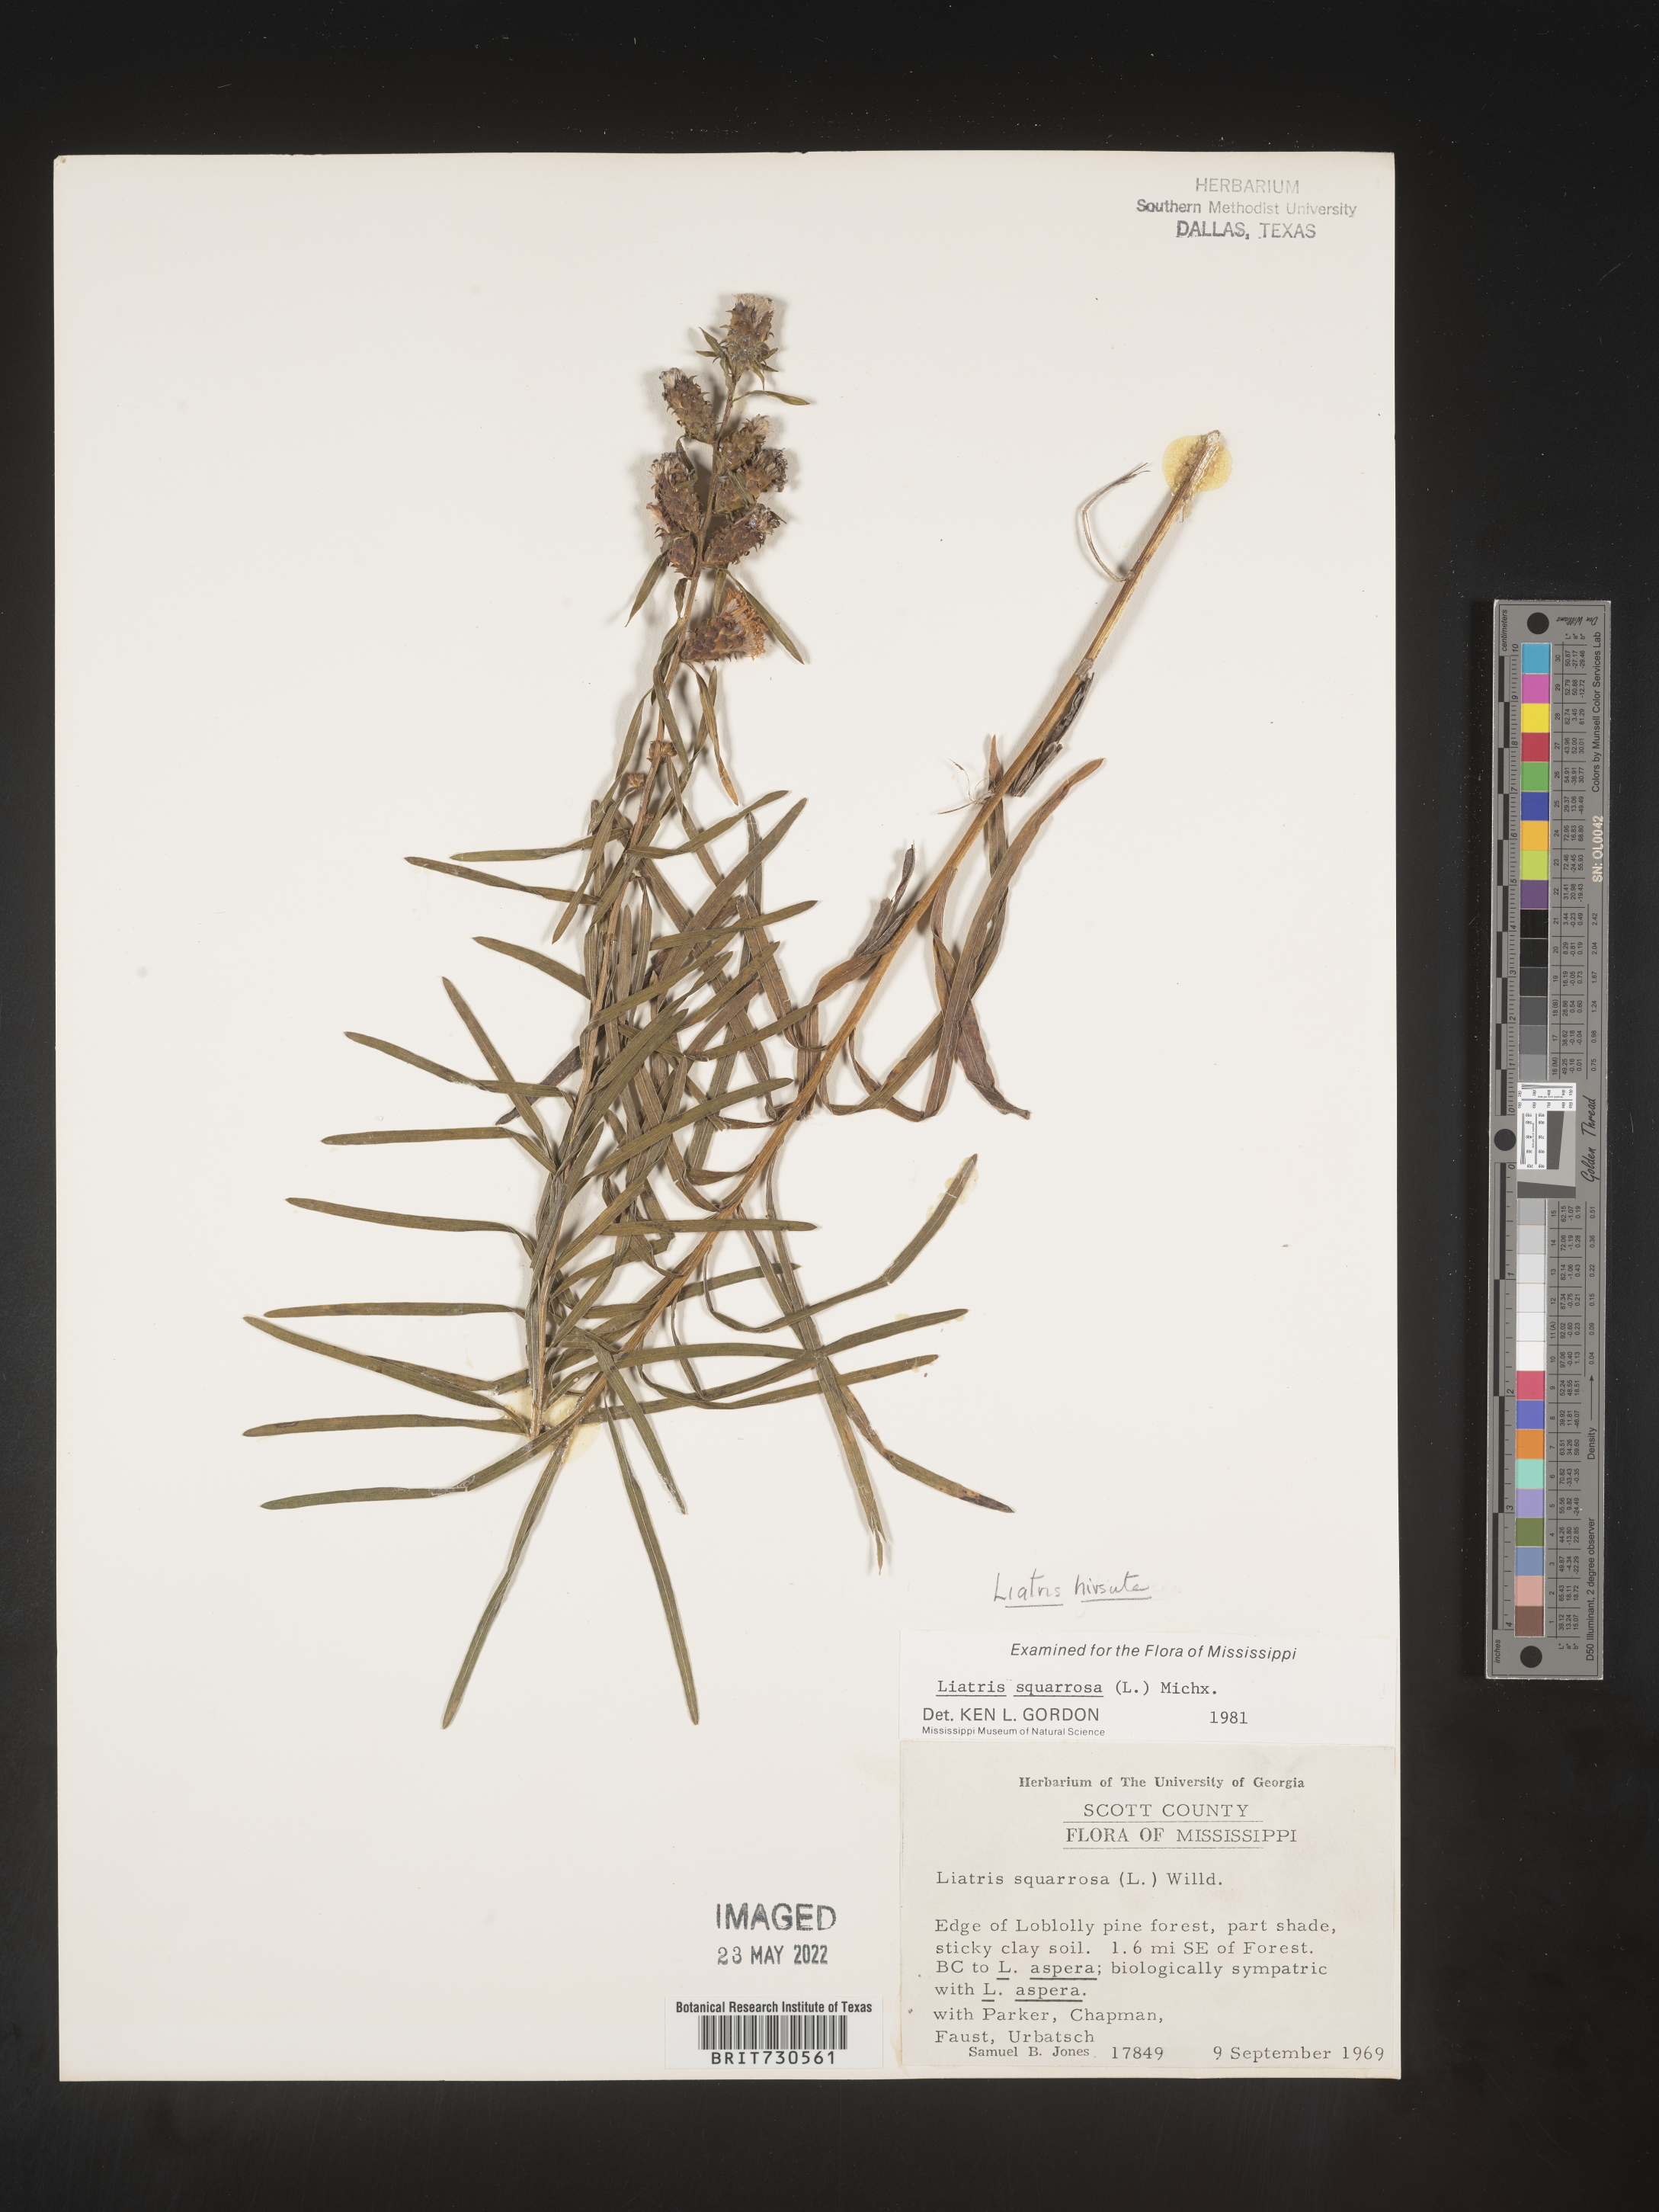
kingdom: Plantae
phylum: Tracheophyta
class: Magnoliopsida
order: Asterales
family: Asteraceae
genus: Liatris
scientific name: Liatris hirsuta
